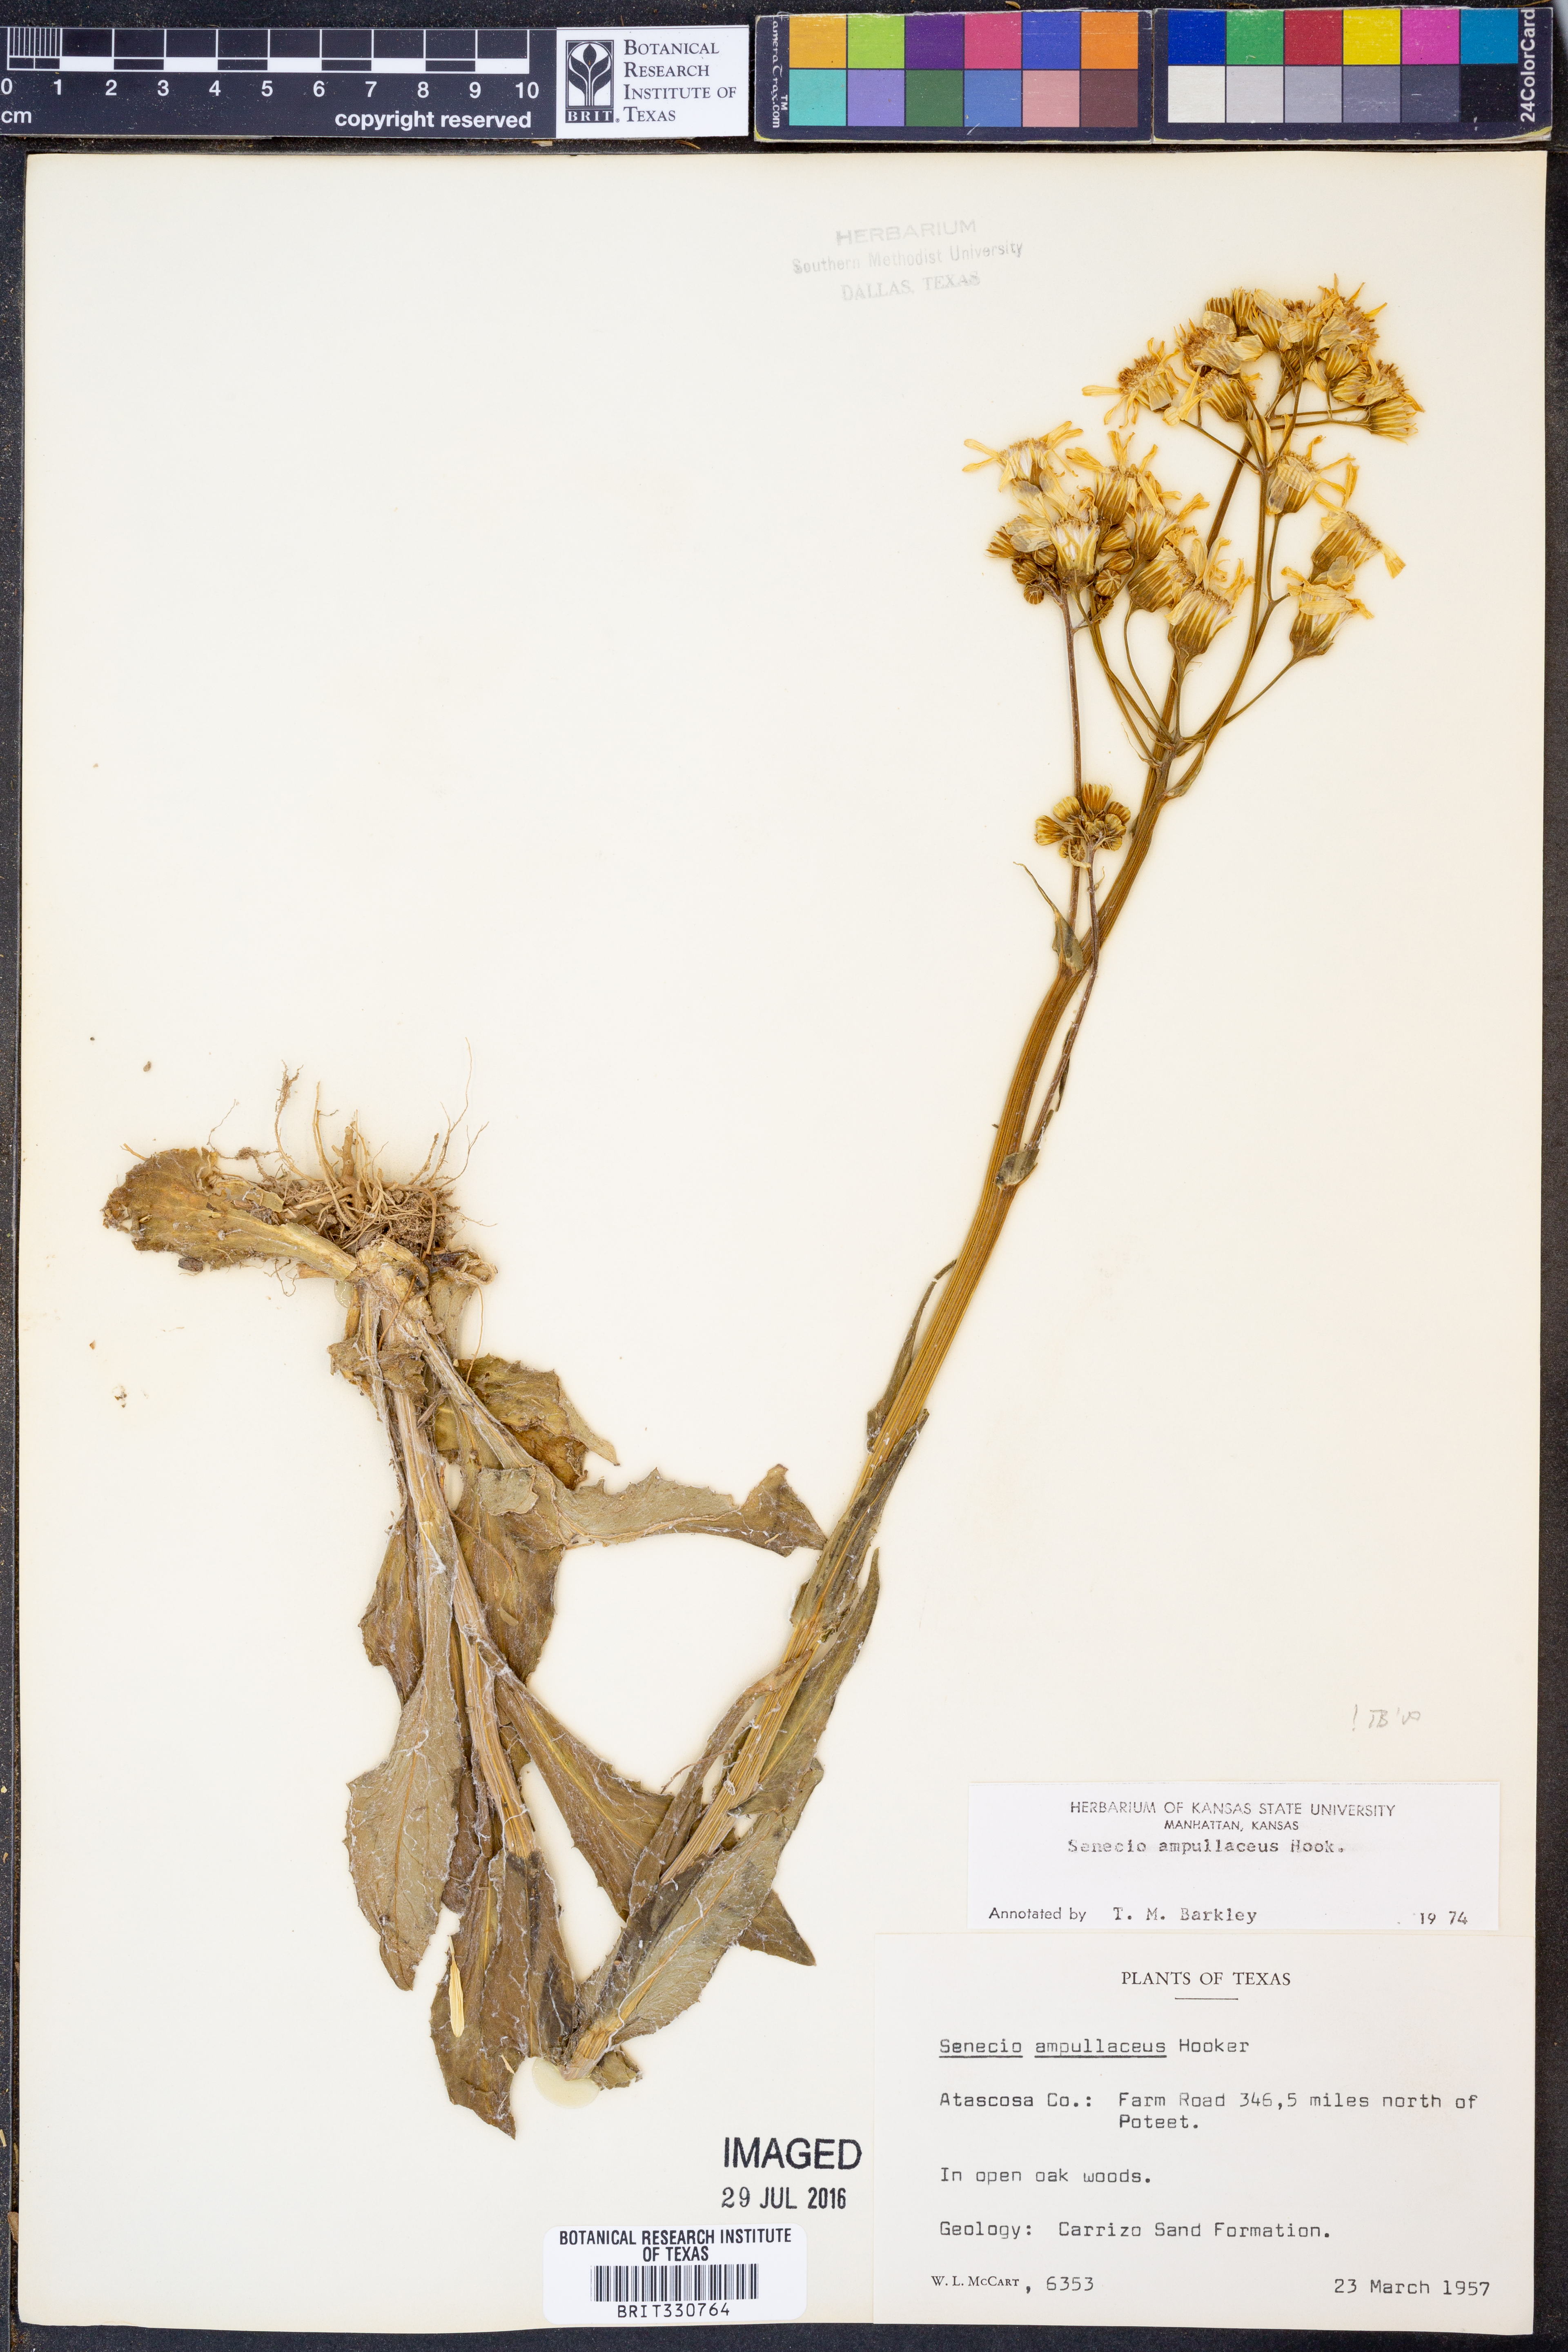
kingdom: Plantae
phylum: Tracheophyta
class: Magnoliopsida
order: Asterales
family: Asteraceae
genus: Senecio
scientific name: Senecio ampullaceus
